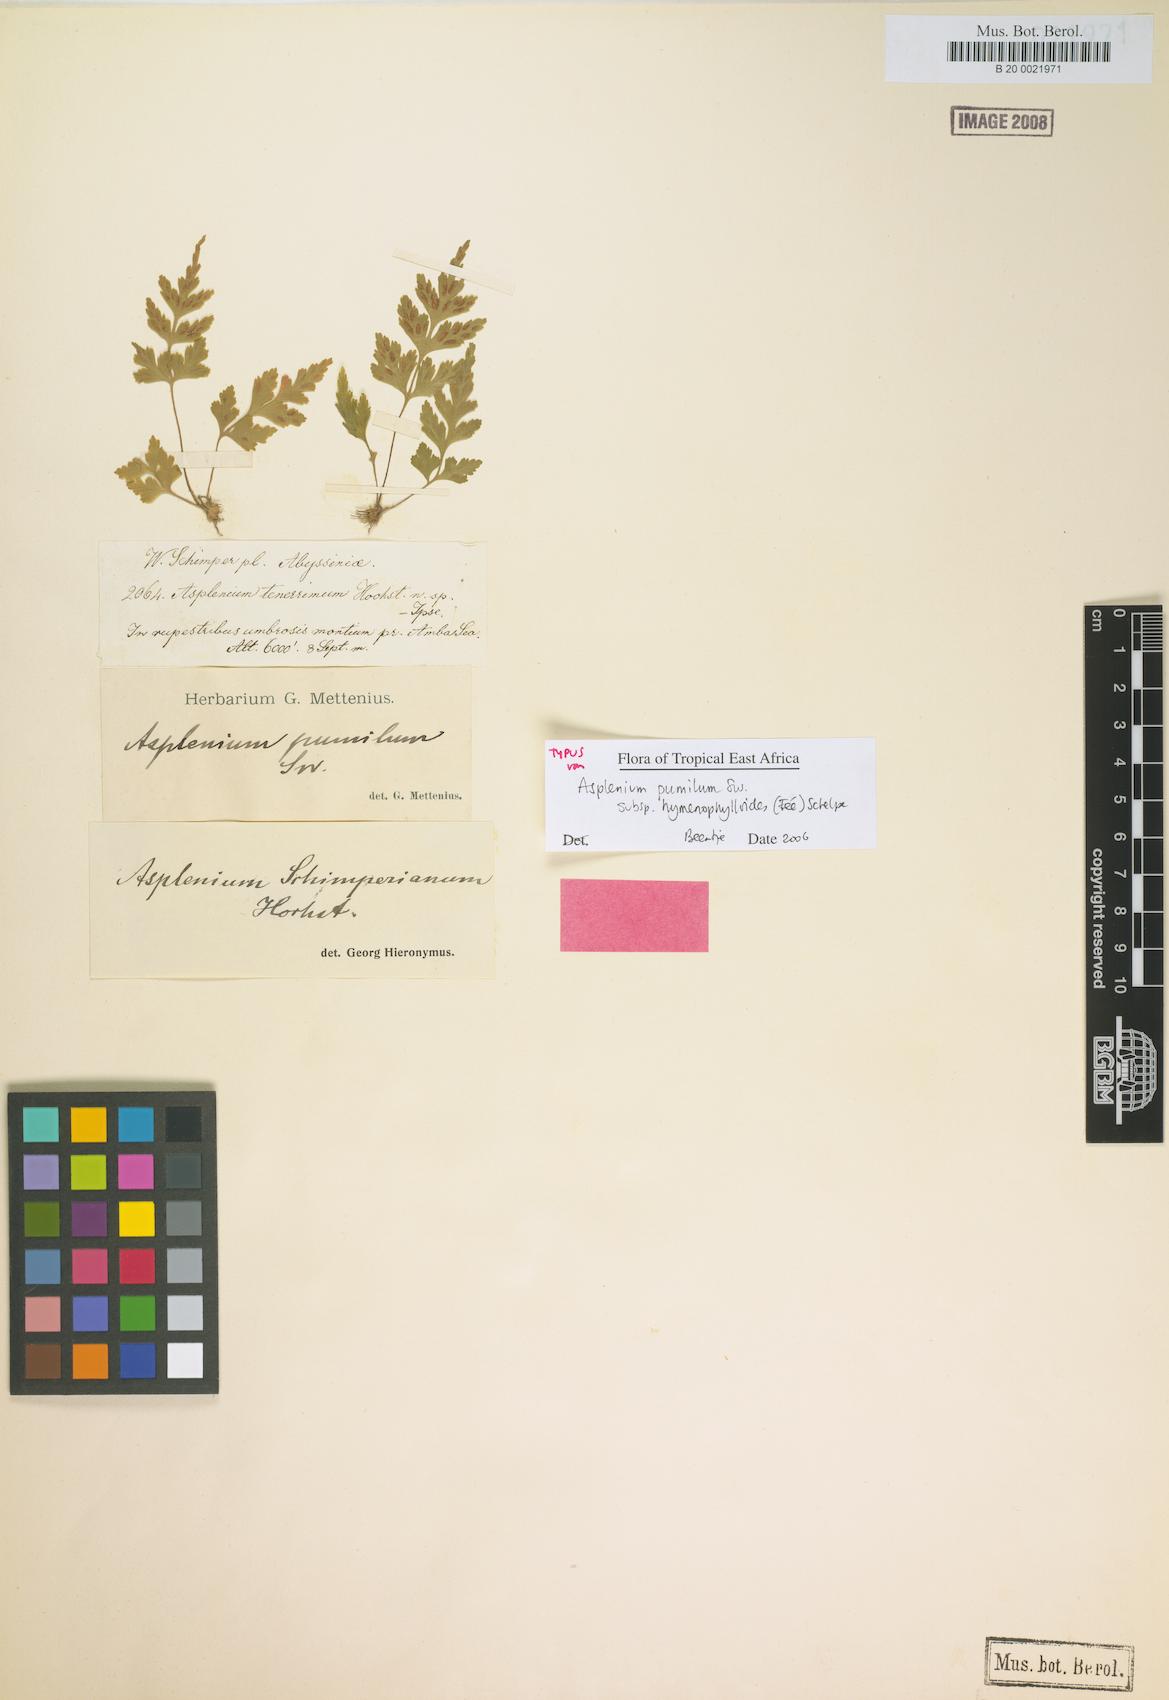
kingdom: Plantae
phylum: Tracheophyta
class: Polypodiopsida
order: Polypodiales
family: Aspleniaceae
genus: Asplenium
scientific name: Asplenium pumilum
